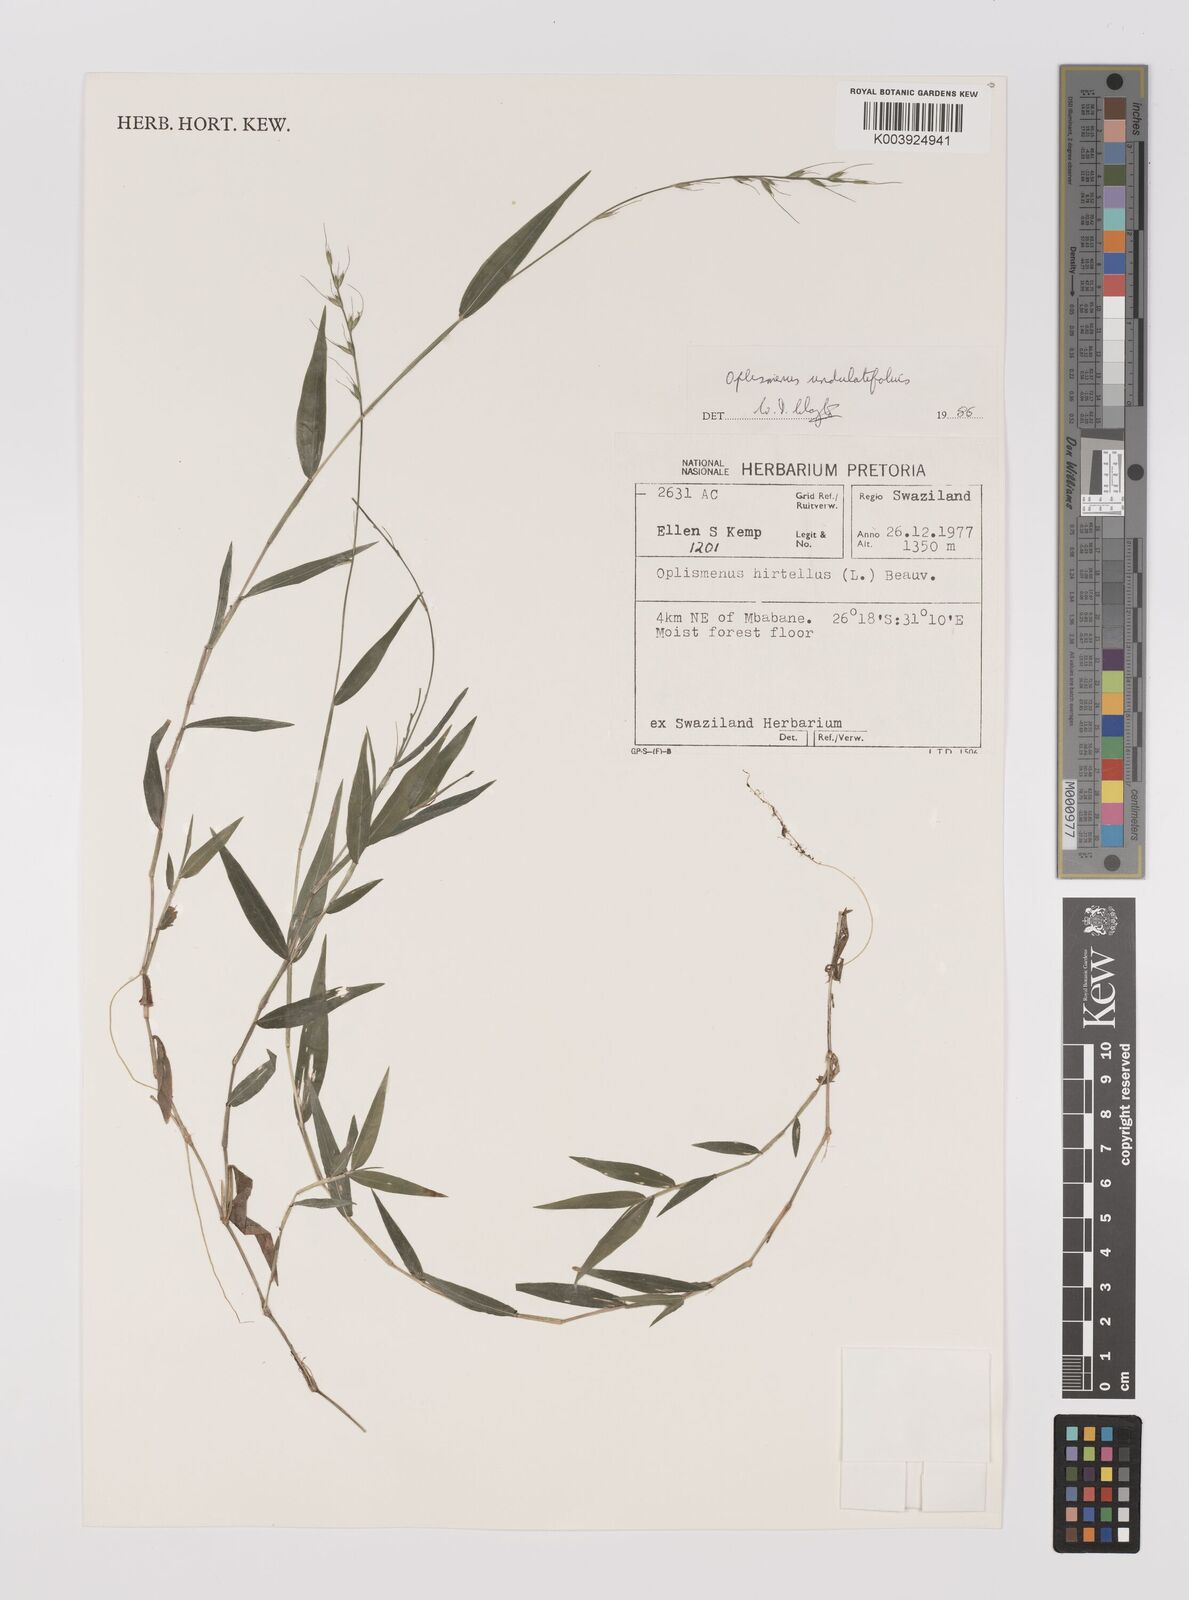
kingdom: Plantae
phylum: Tracheophyta
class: Liliopsida
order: Poales
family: Poaceae
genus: Oplismenus
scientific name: Oplismenus undulatifolius
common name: Wavyleaf basketgrass
